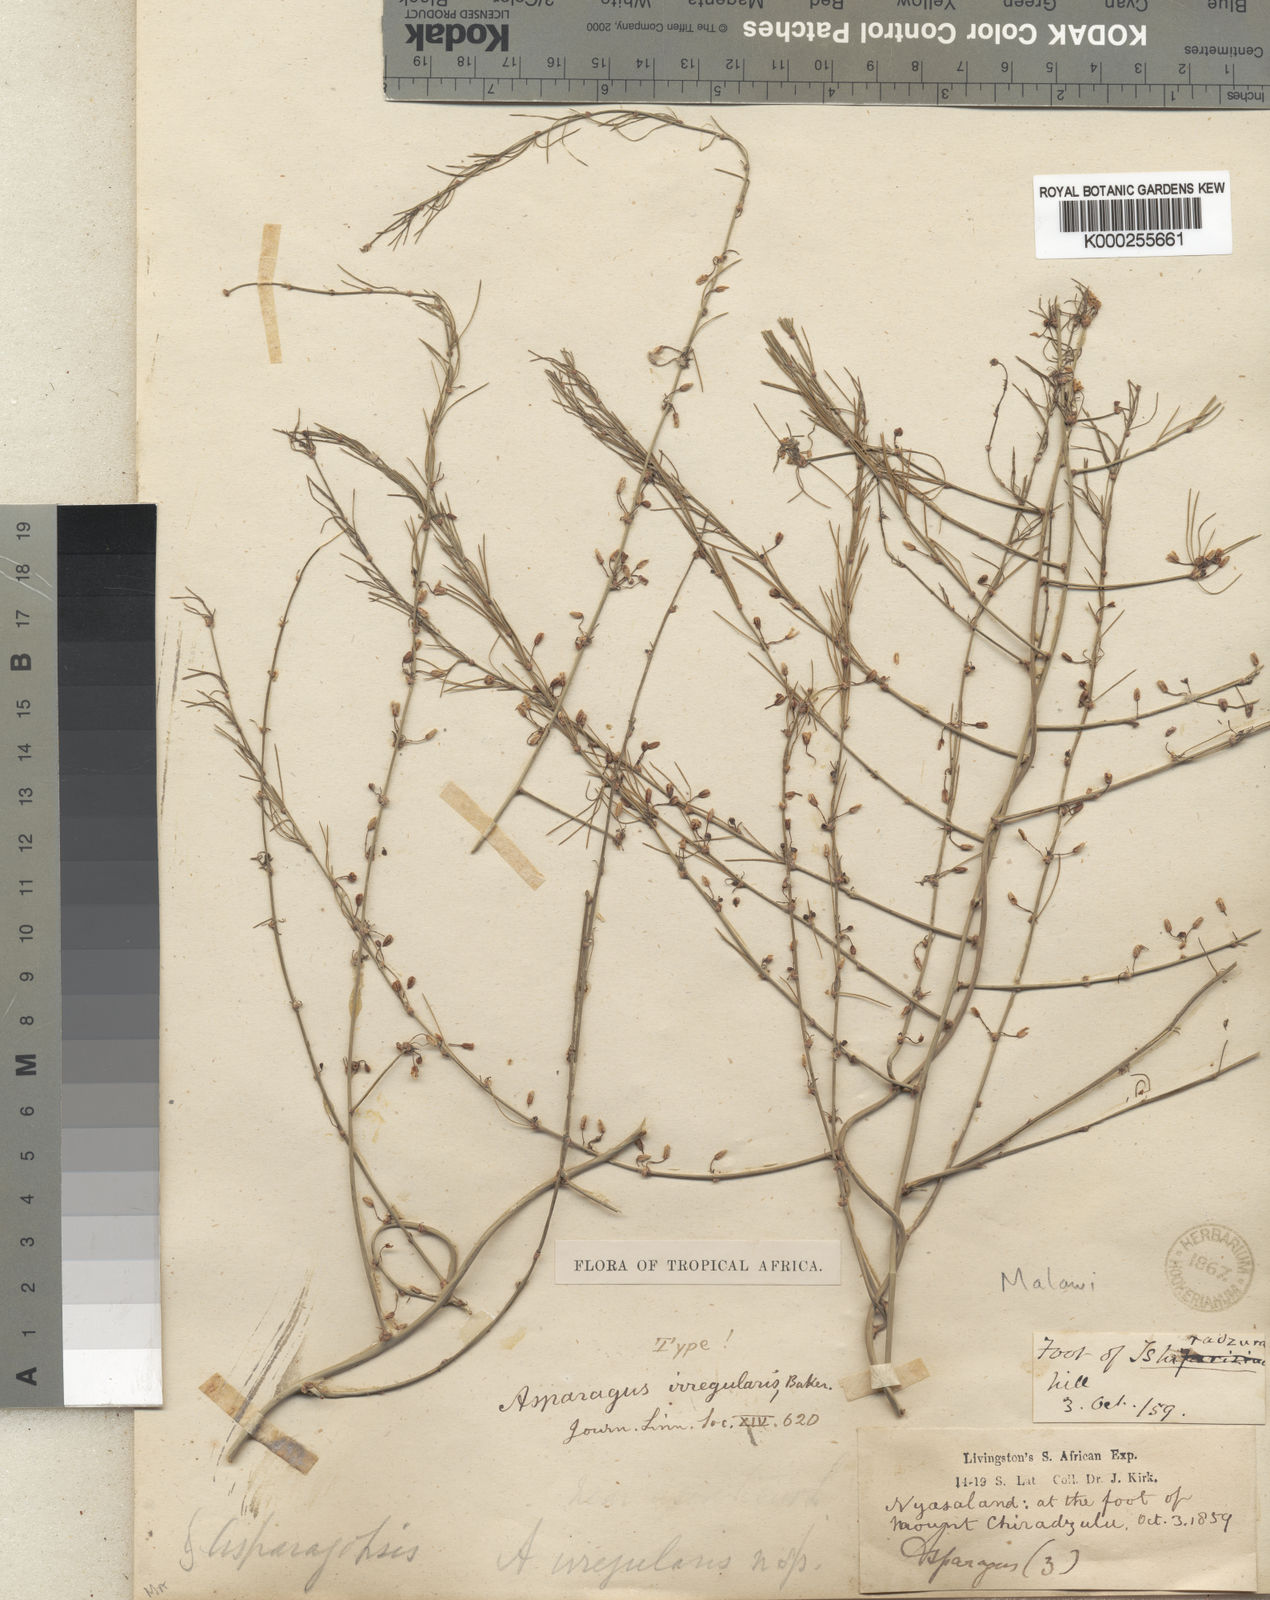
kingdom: Plantae
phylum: Tracheophyta
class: Liliopsida
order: Asparagales
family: Asparagaceae
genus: Asparagus
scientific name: Asparagus africanus
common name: Asparagus-fern
